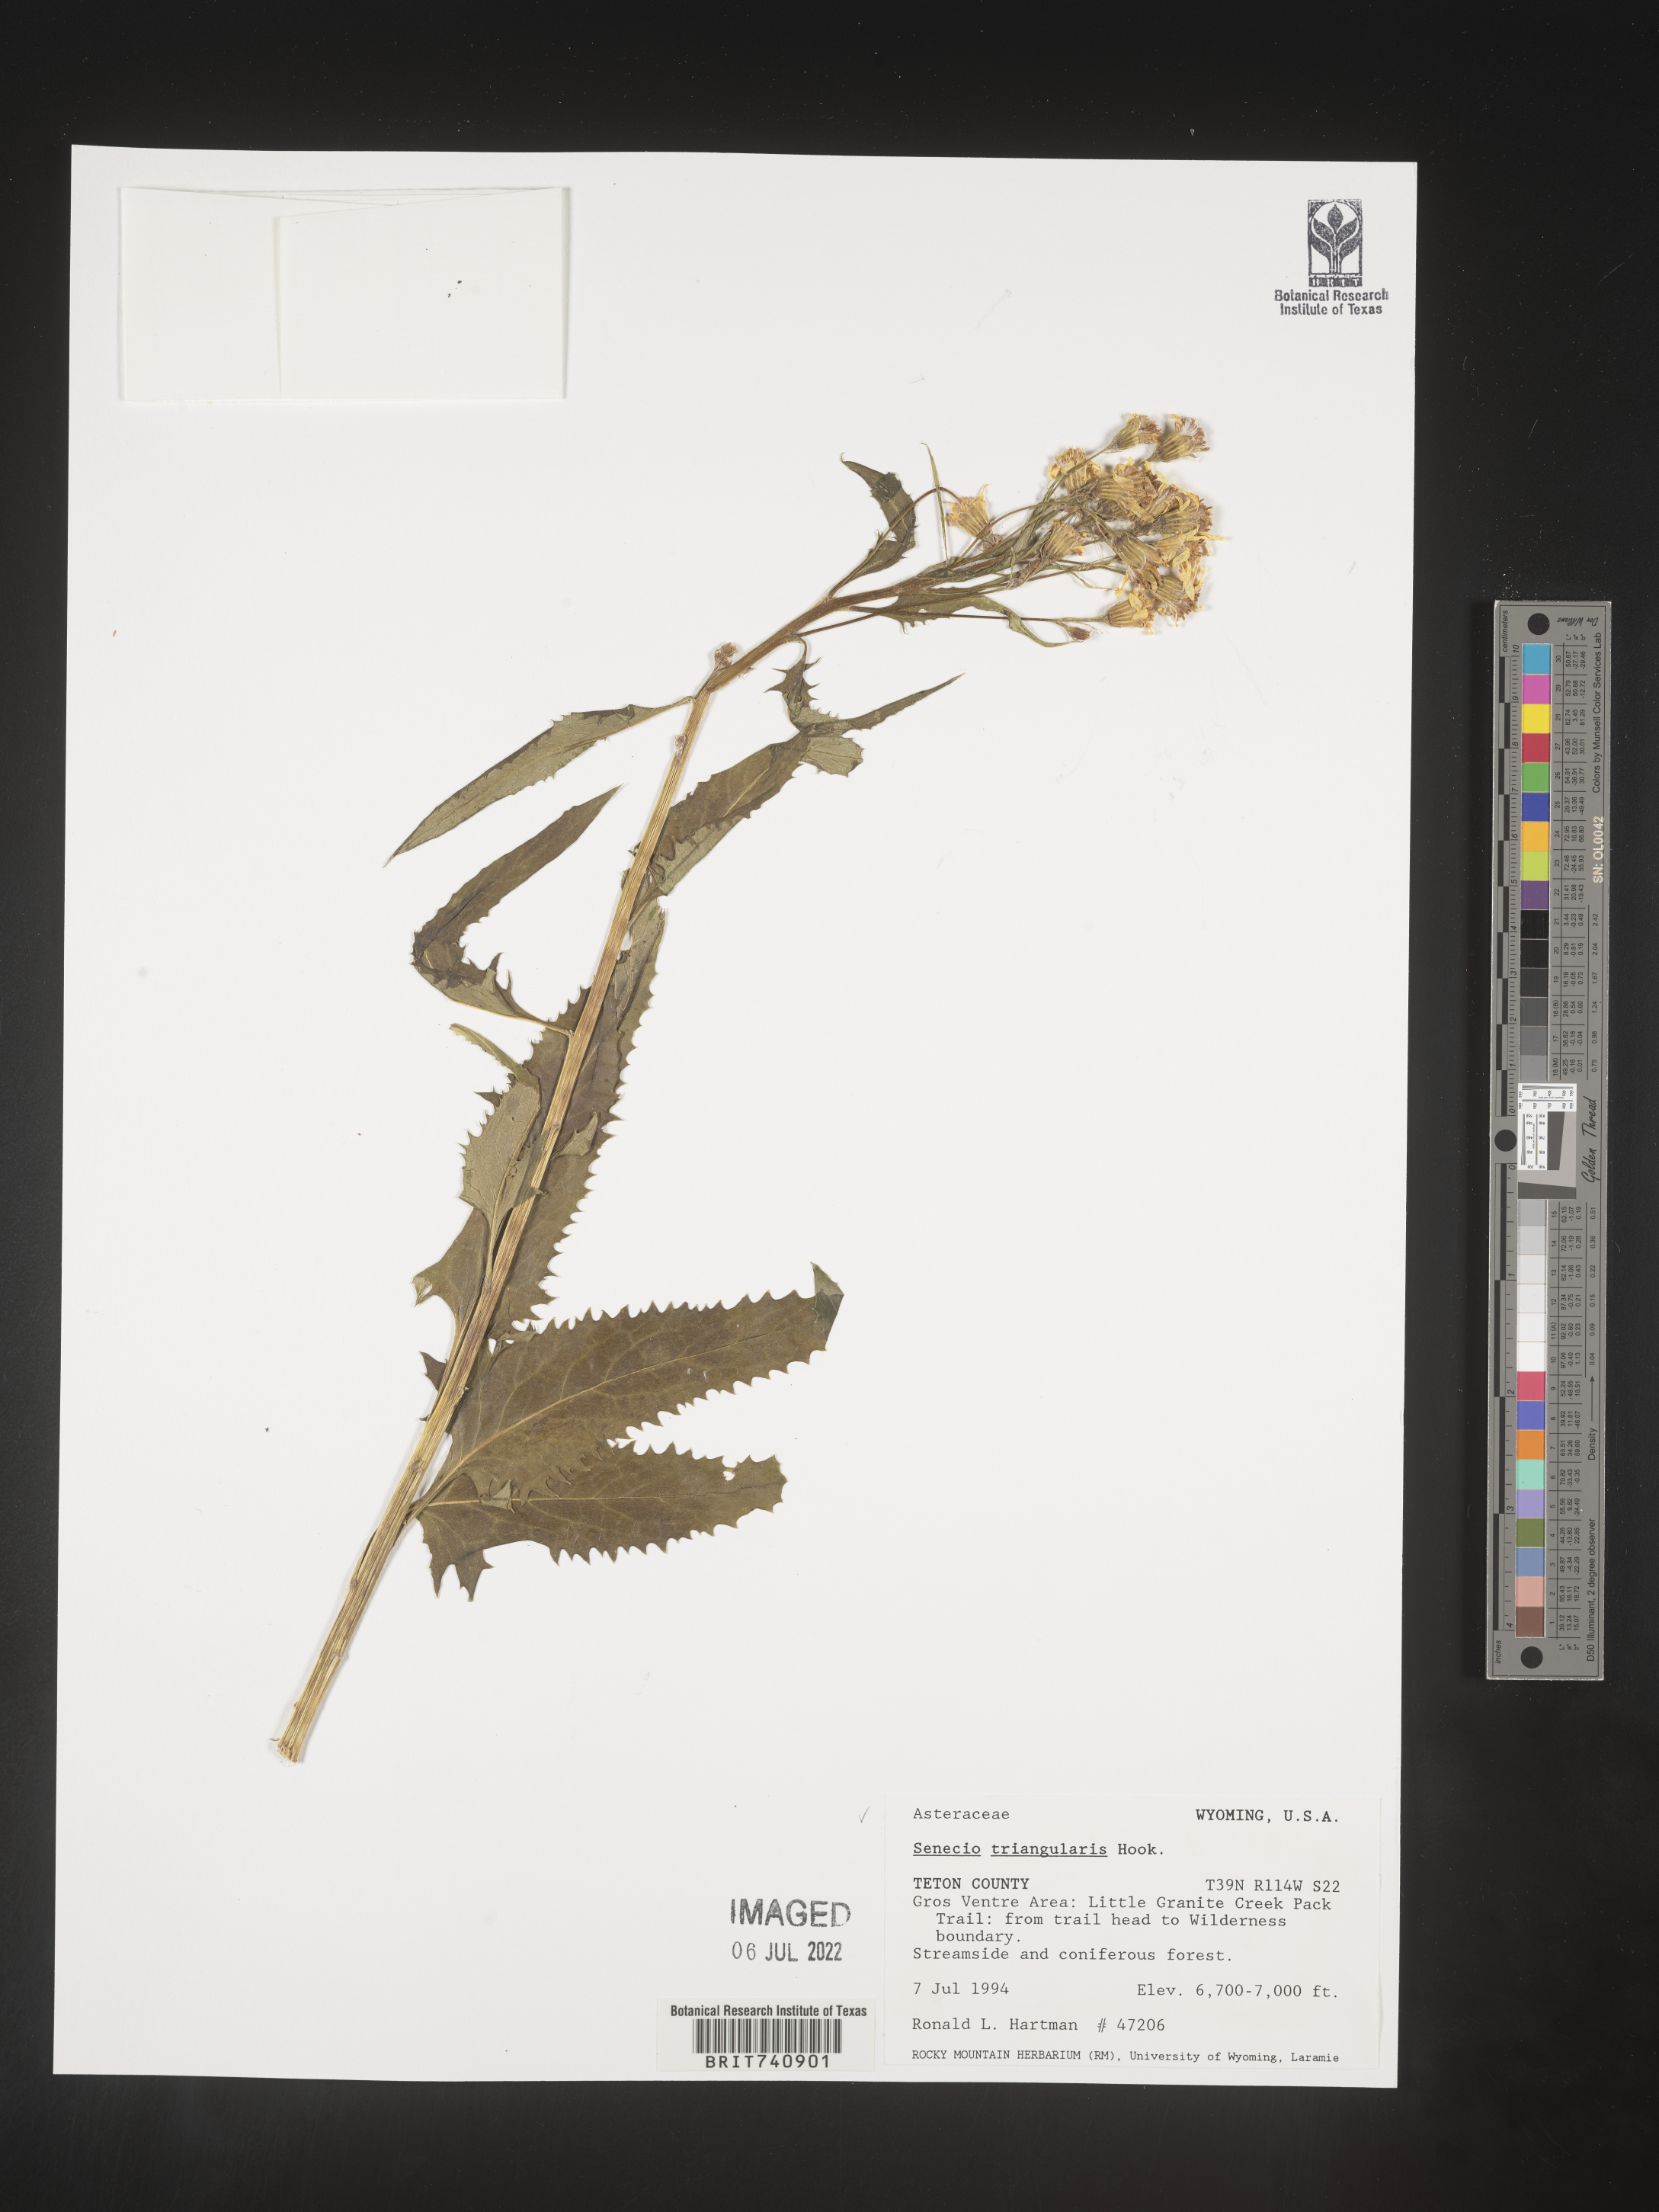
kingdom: Plantae
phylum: Tracheophyta
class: Magnoliopsida
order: Asterales
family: Asteraceae
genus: Senecio
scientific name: Senecio triangularis
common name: Arrowleaf butterweed
